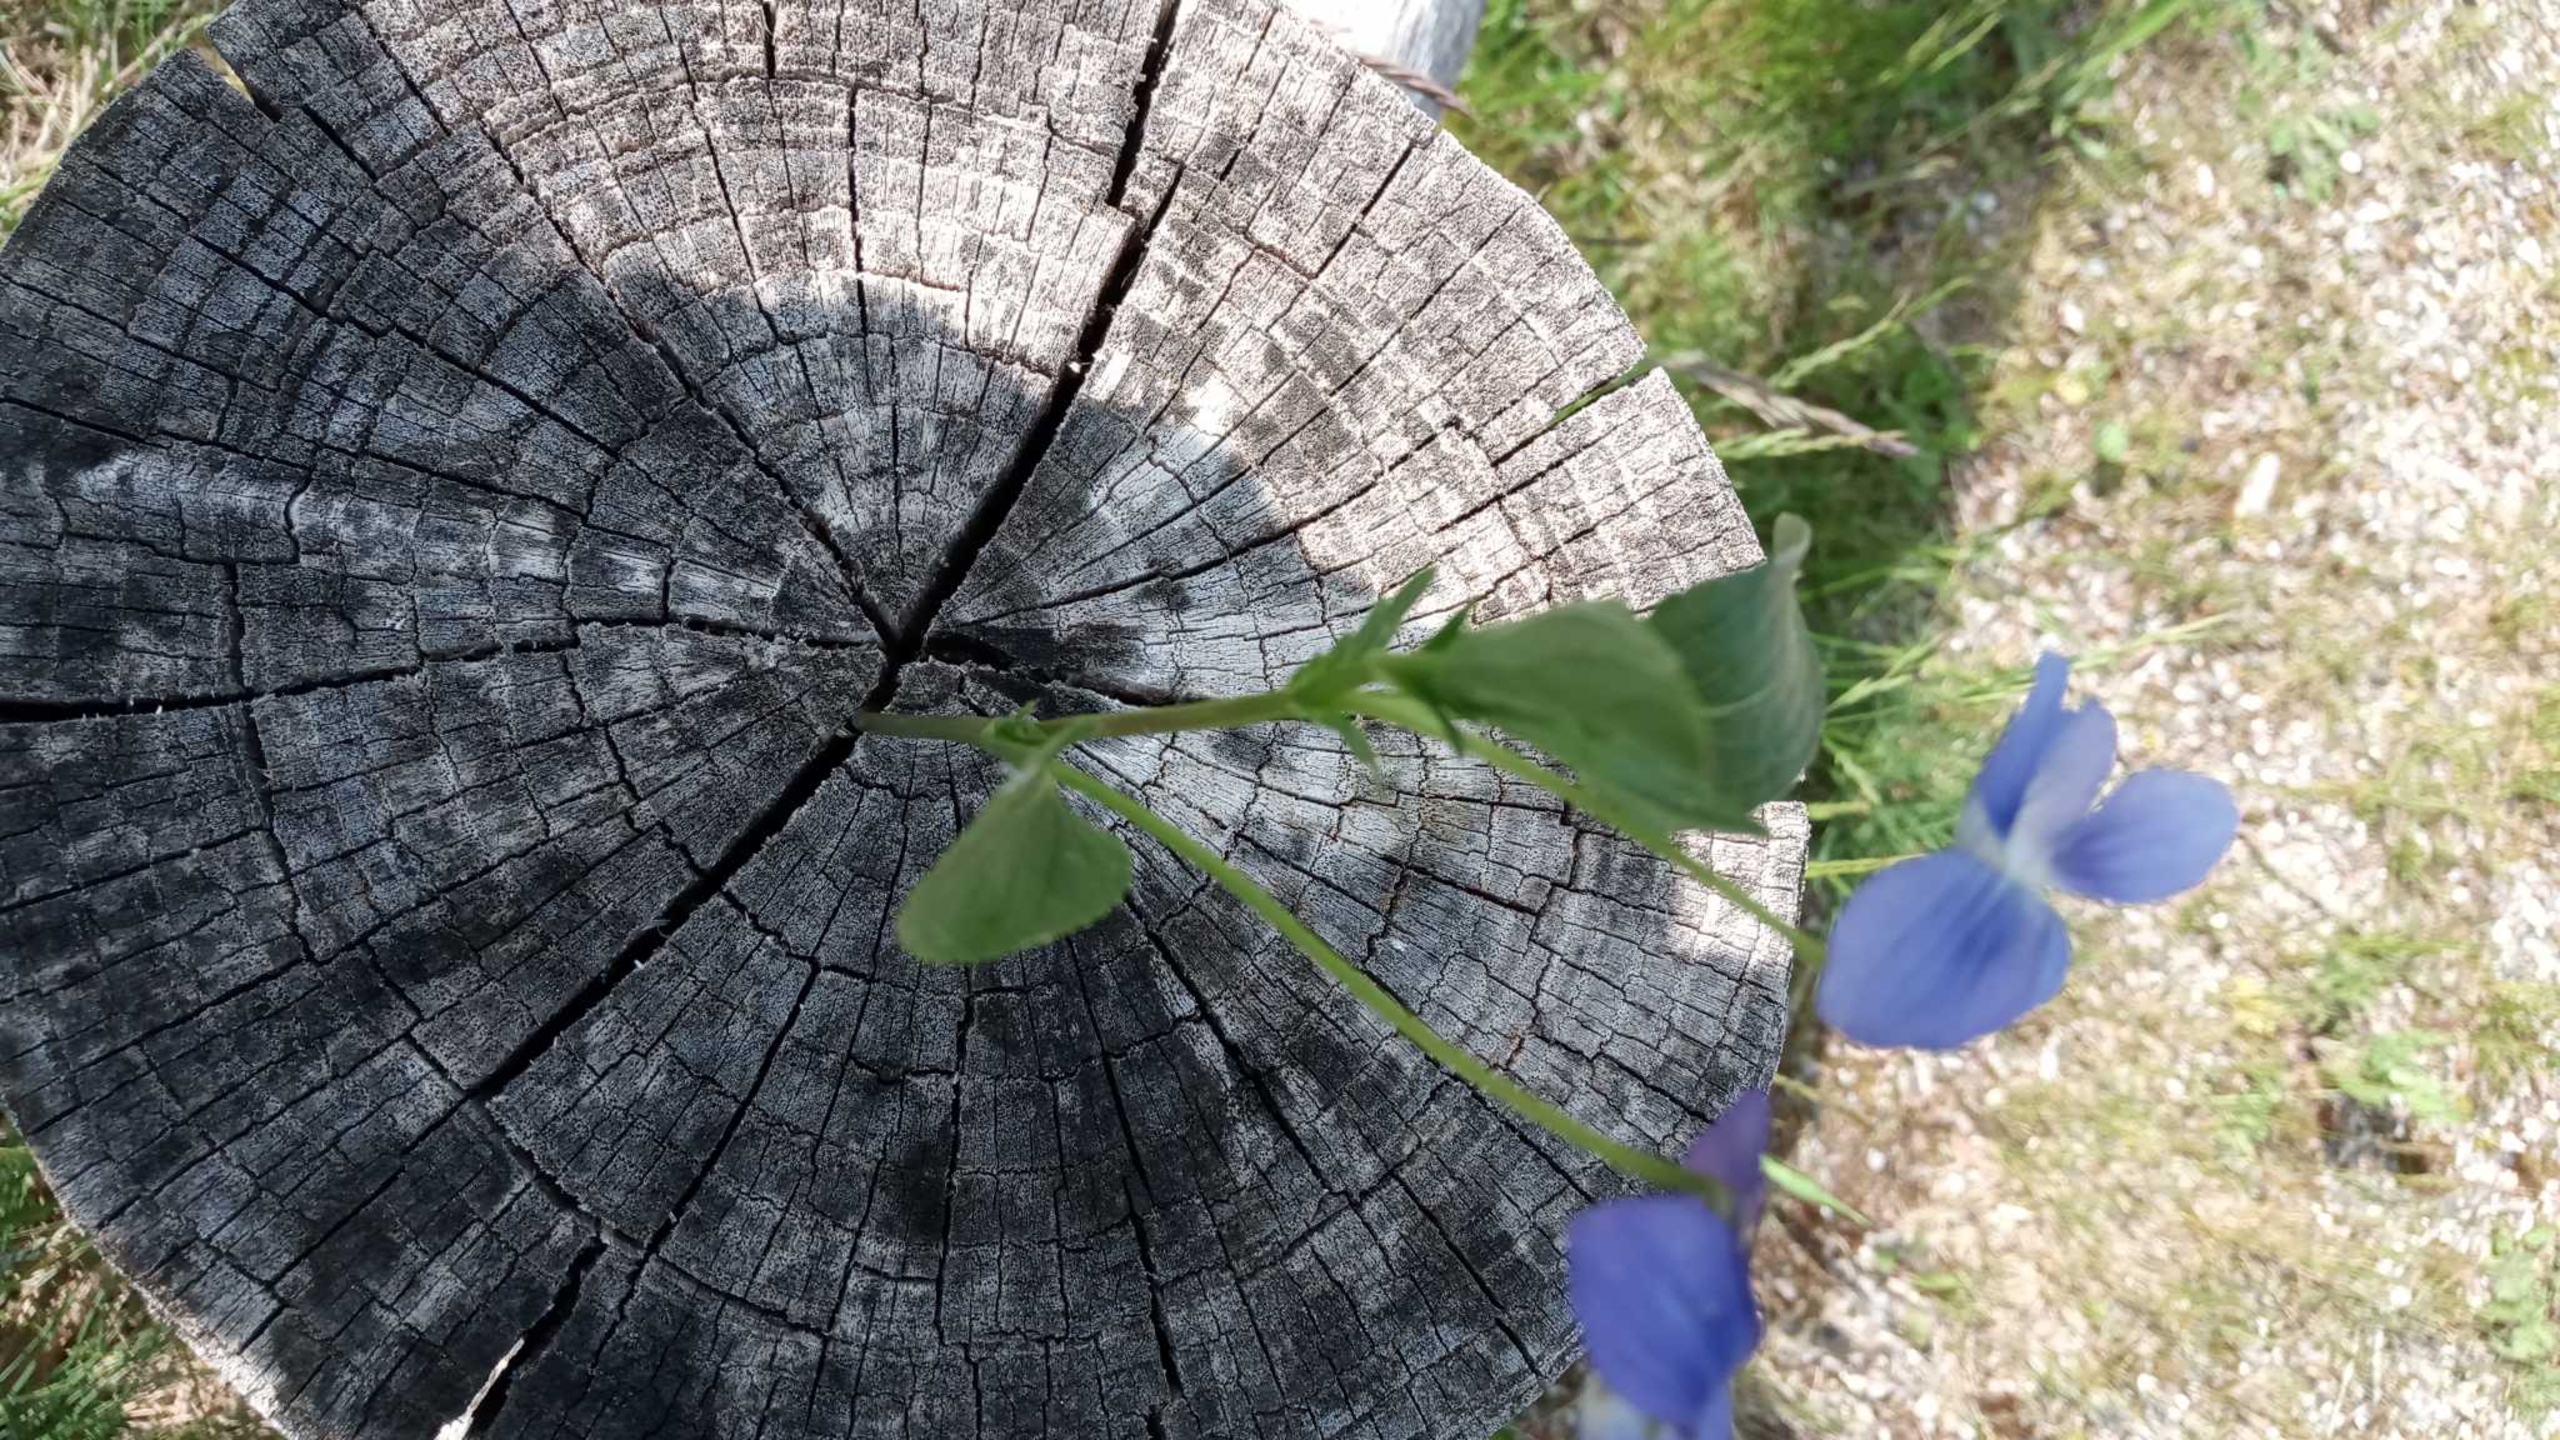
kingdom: Plantae
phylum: Tracheophyta
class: Magnoliopsida
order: Malpighiales
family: Violaceae
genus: Viola
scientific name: Viola canina
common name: Hunde-viol
